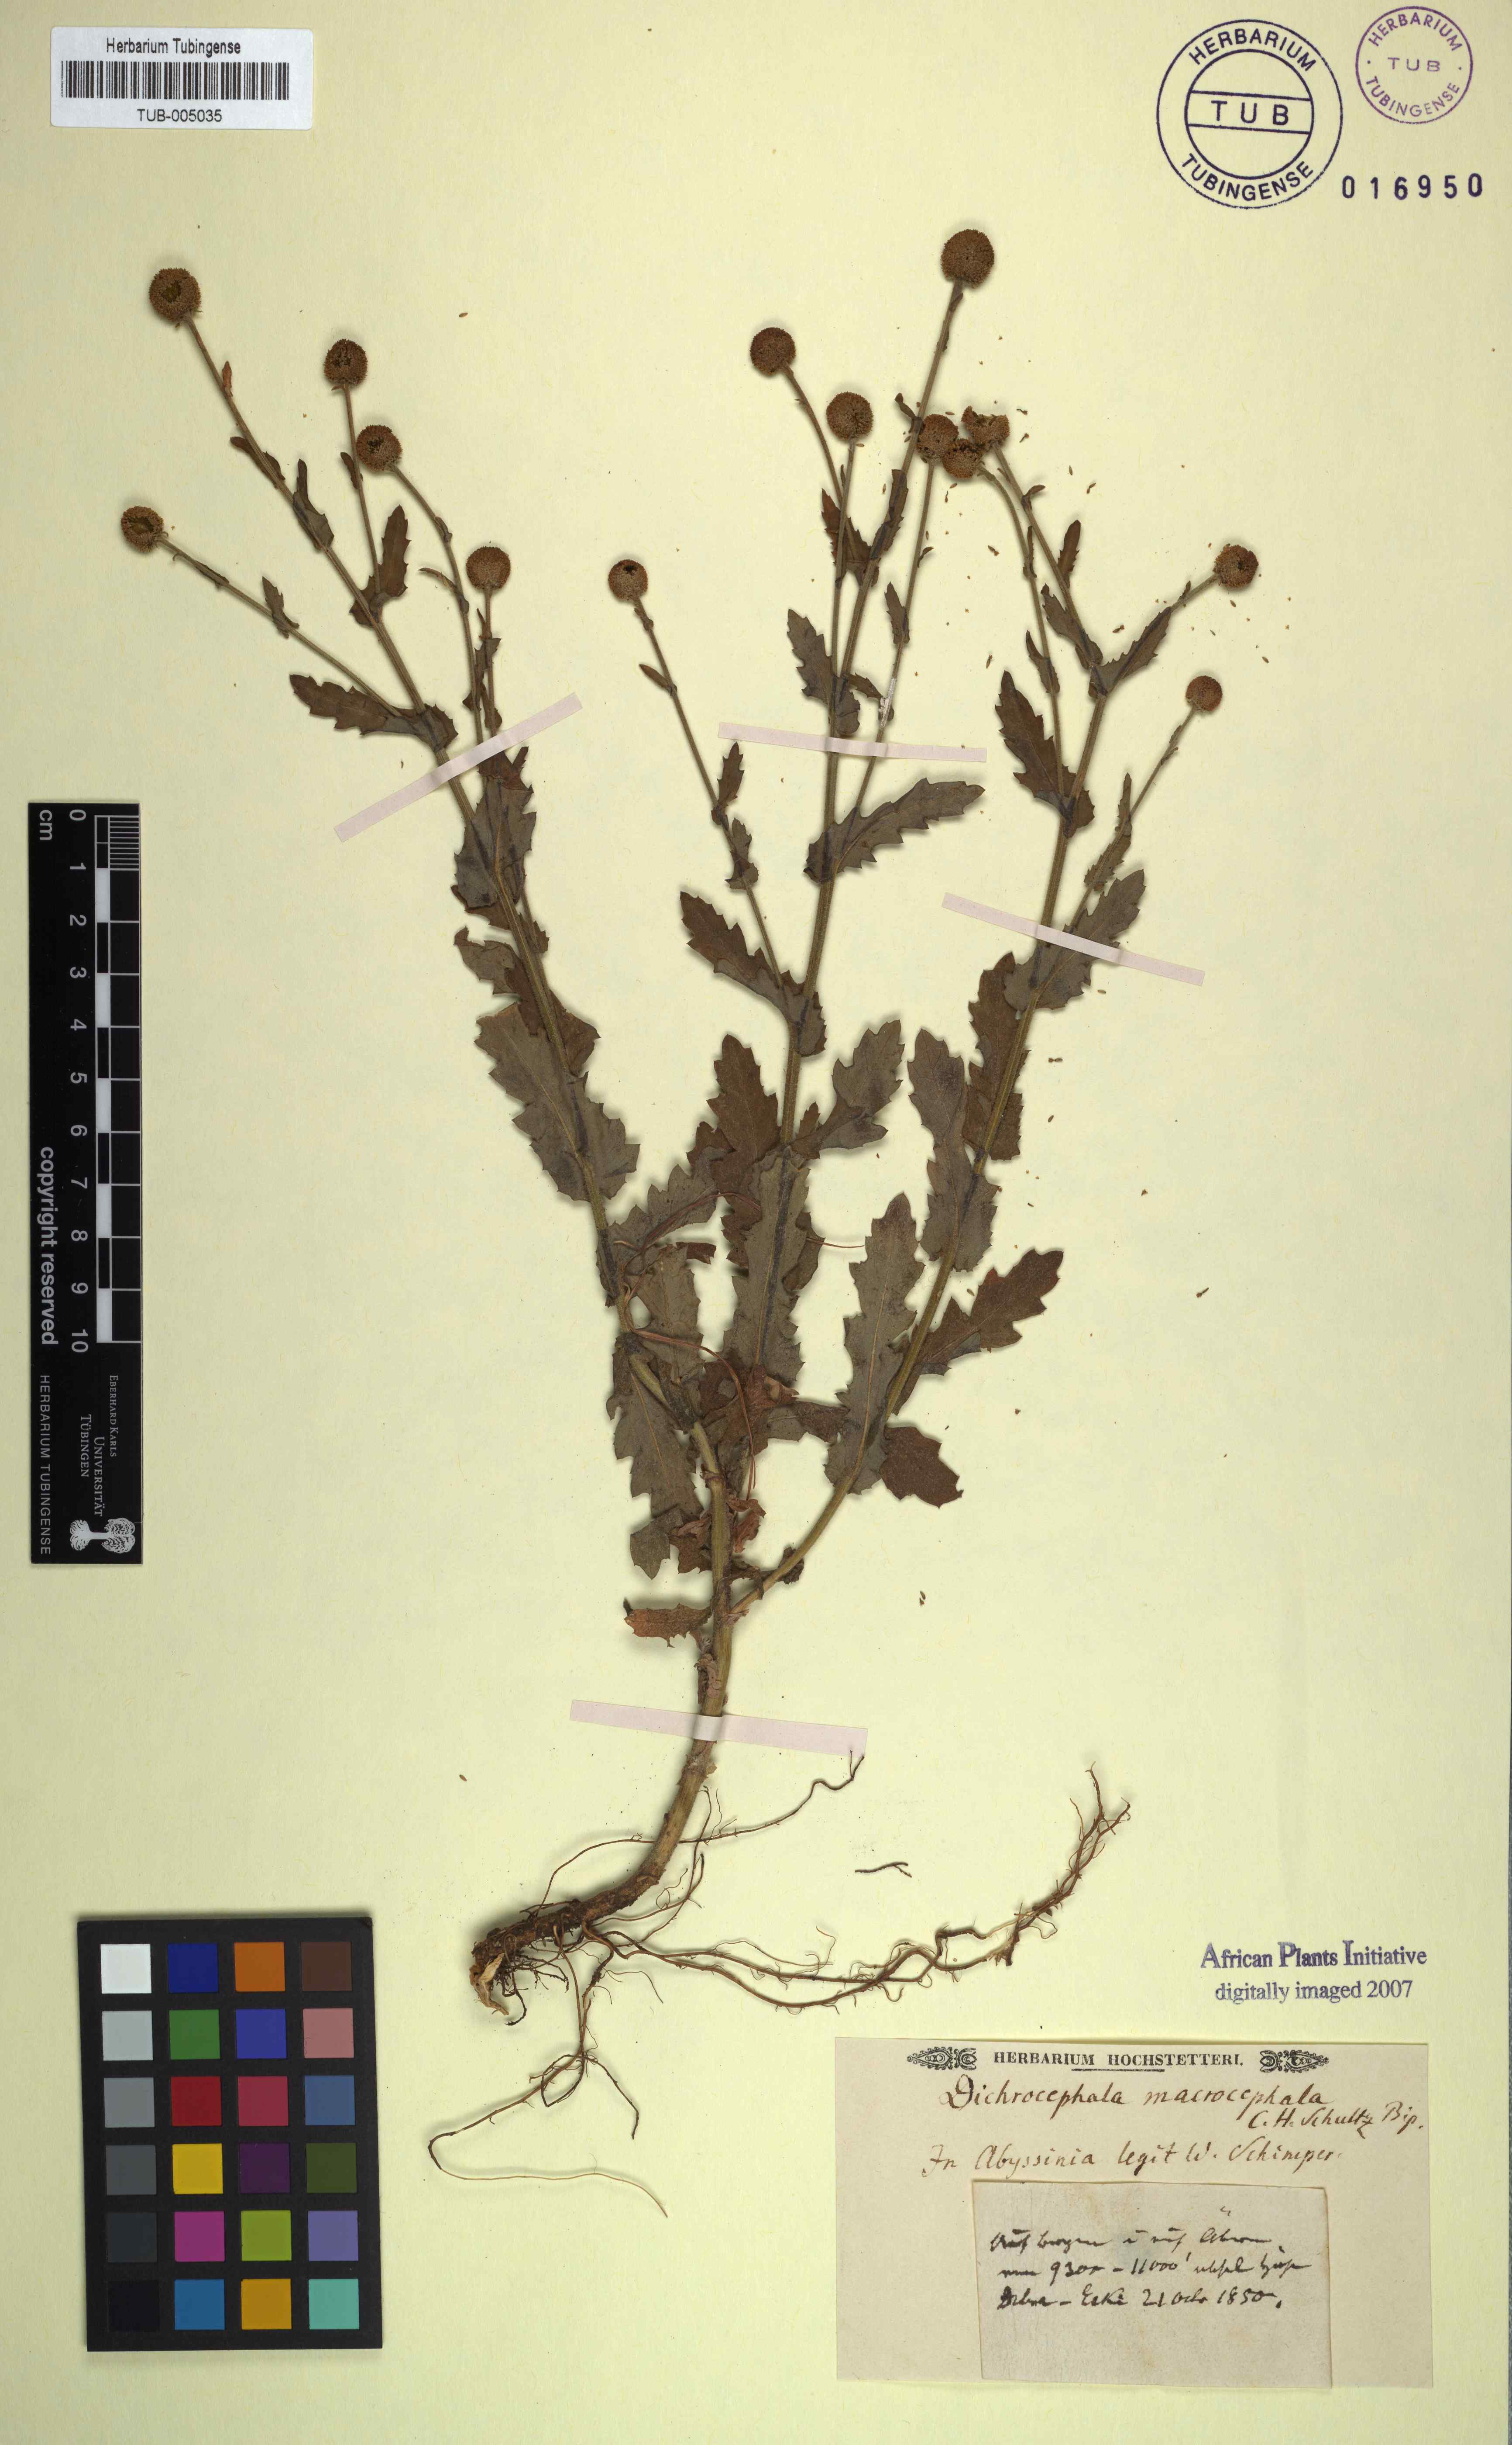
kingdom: Plantae
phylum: Tracheophyta
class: Magnoliopsida
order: Asterales
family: Asteraceae
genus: Dichrocephala
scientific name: Dichrocephala chrysanthemifolia
